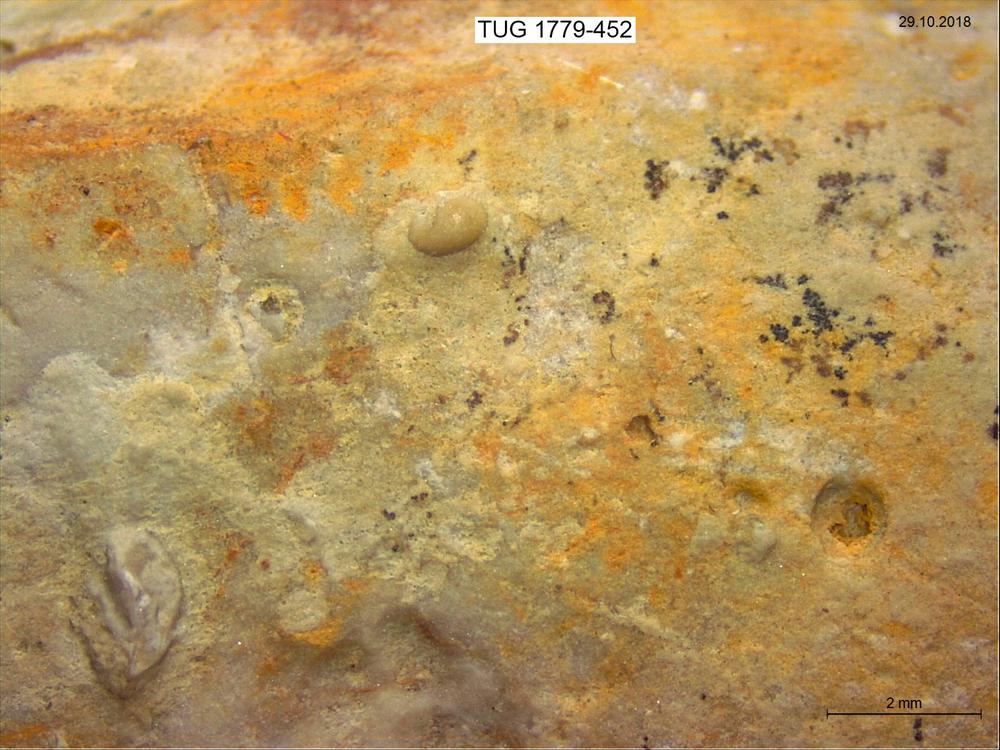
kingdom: Animalia
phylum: Arthropoda
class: Ostracoda
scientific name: Ostracoda
